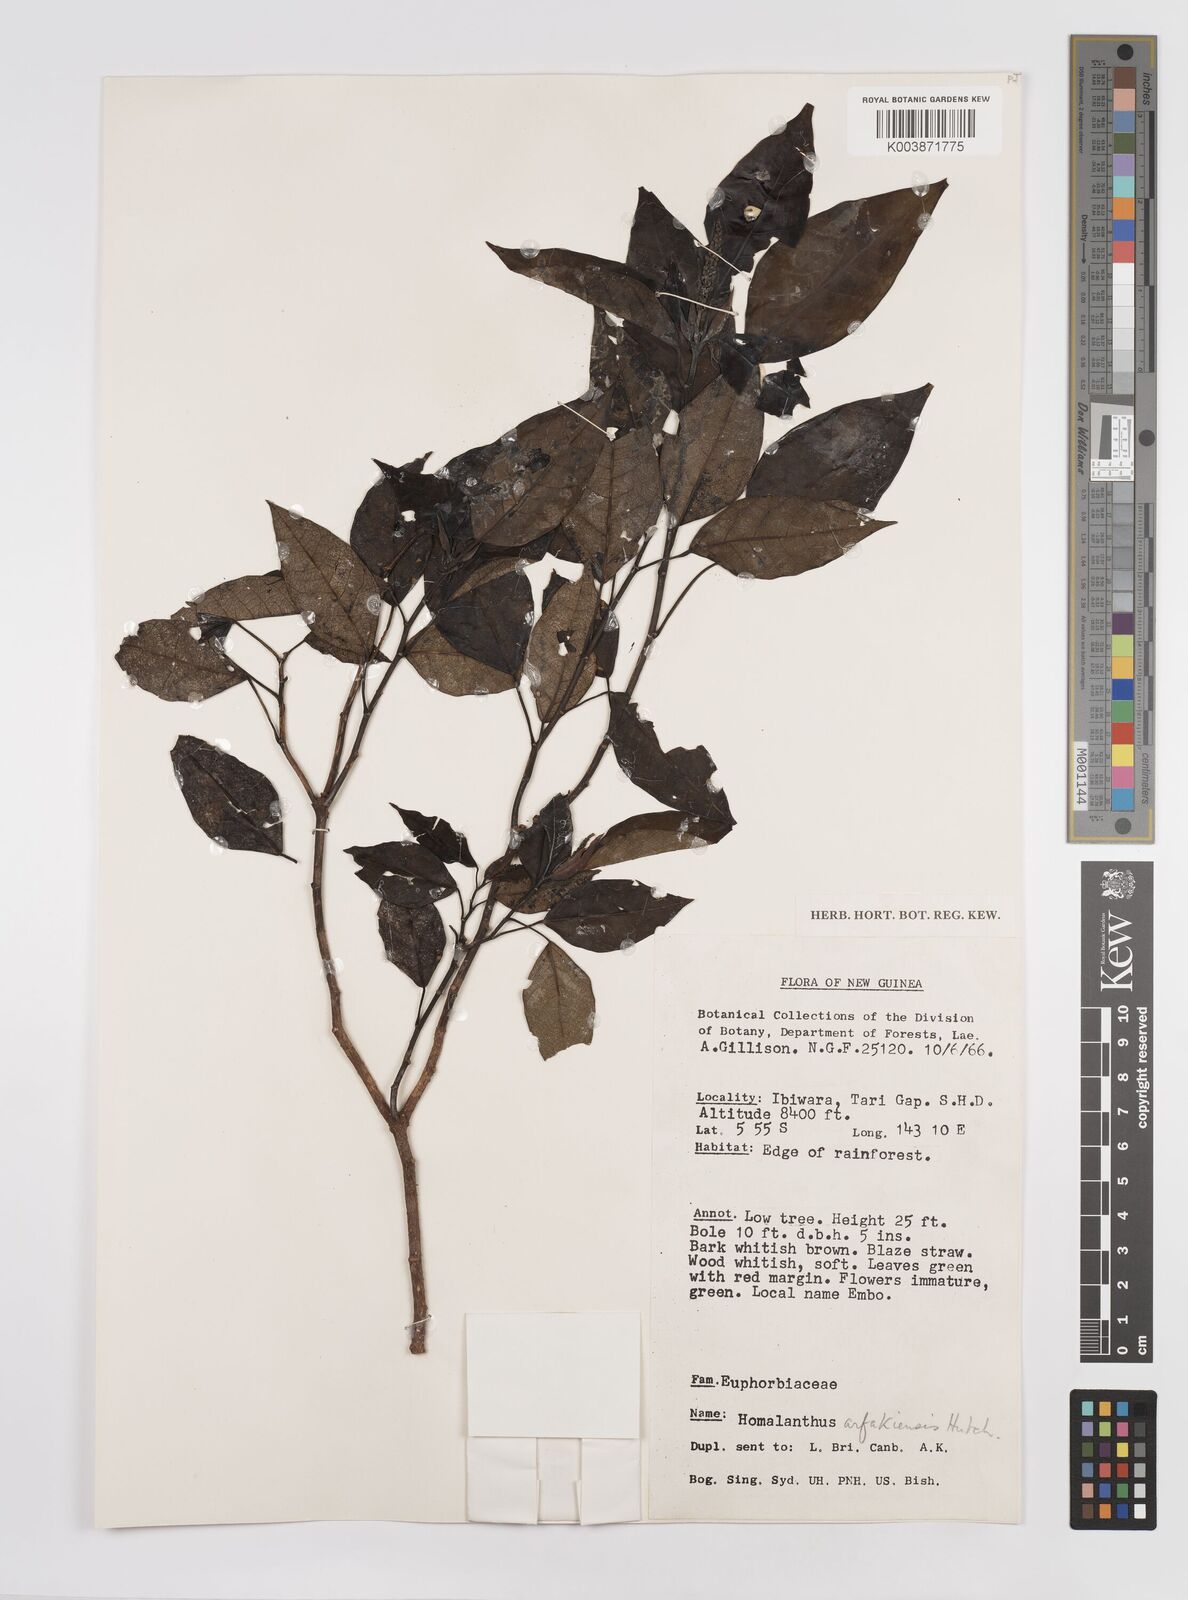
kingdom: Plantae
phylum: Tracheophyta
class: Magnoliopsida
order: Malpighiales
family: Euphorbiaceae
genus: Homalanthus
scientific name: Homalanthus arfakiensis
